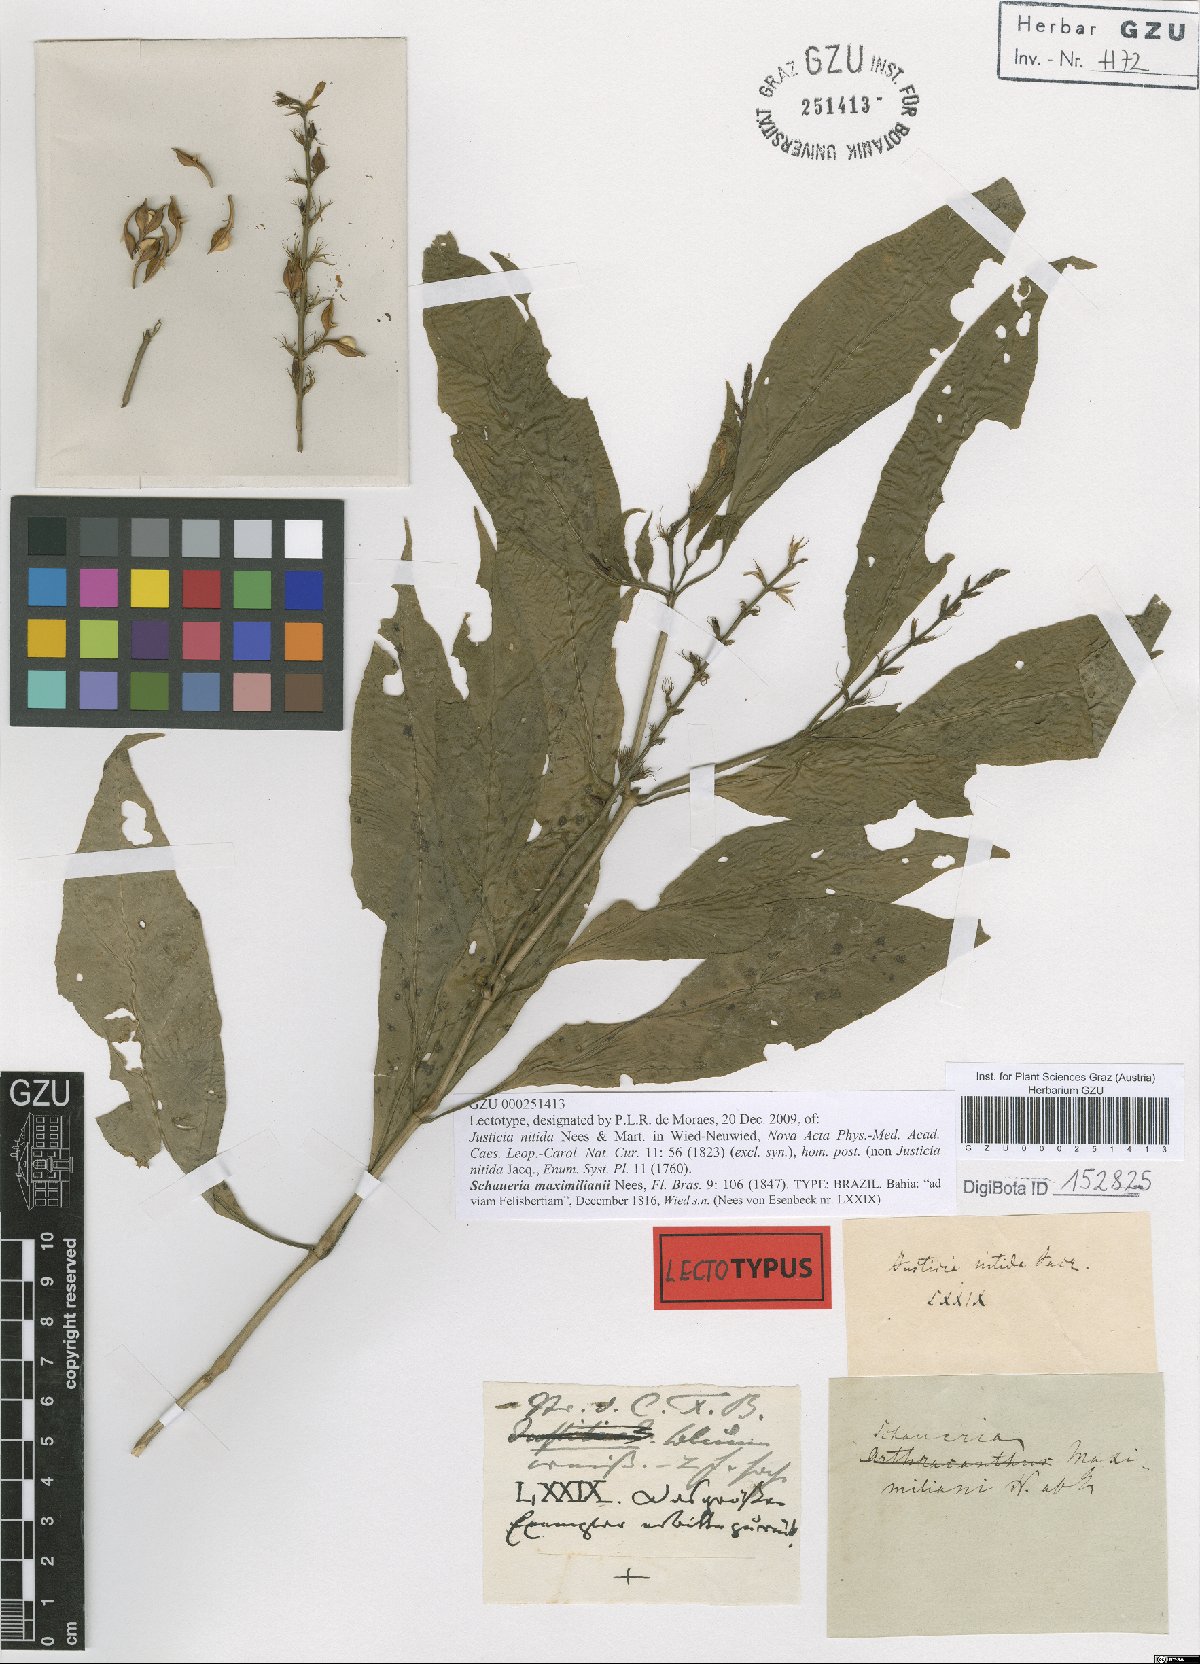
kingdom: Plantae
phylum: Tracheophyta
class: Magnoliopsida
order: Lamiales
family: Acanthaceae
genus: Schaueria
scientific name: Schaueria maximilianii
